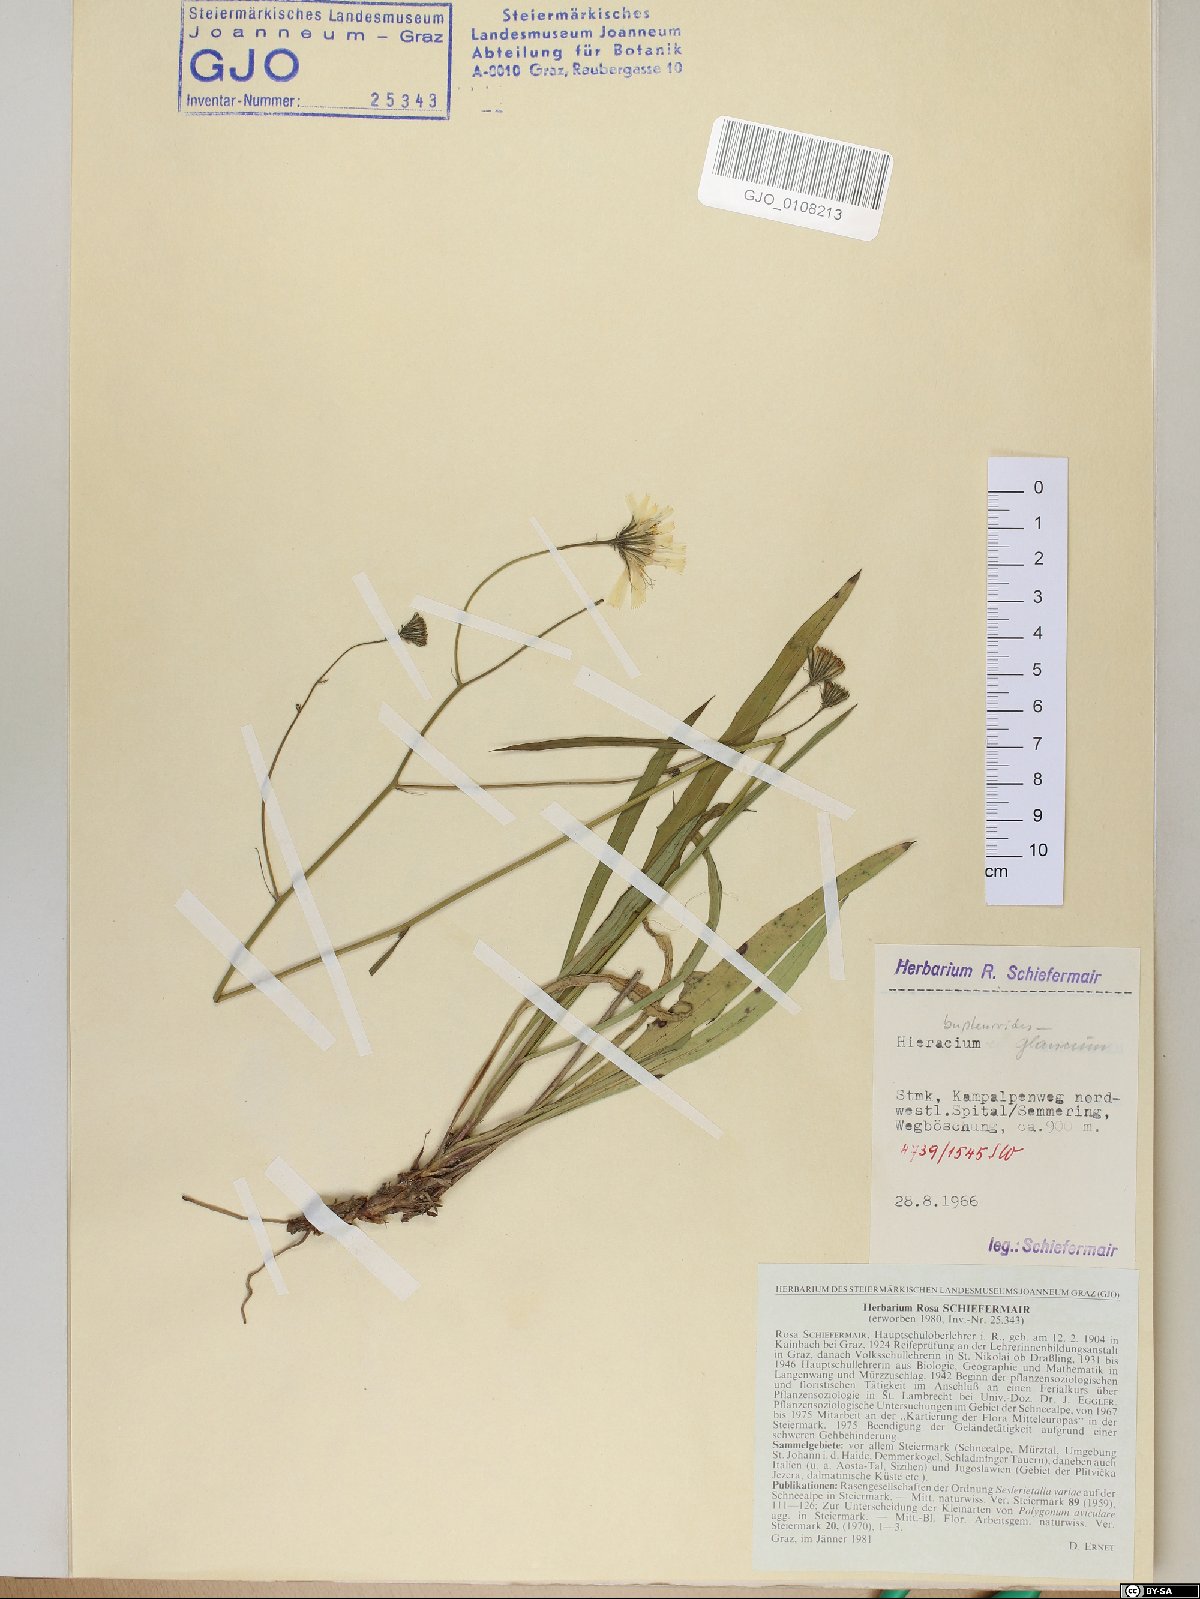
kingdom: Plantae
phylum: Tracheophyta
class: Magnoliopsida
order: Asterales
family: Asteraceae
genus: Hieracium
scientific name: Hieracium bupleuroides
